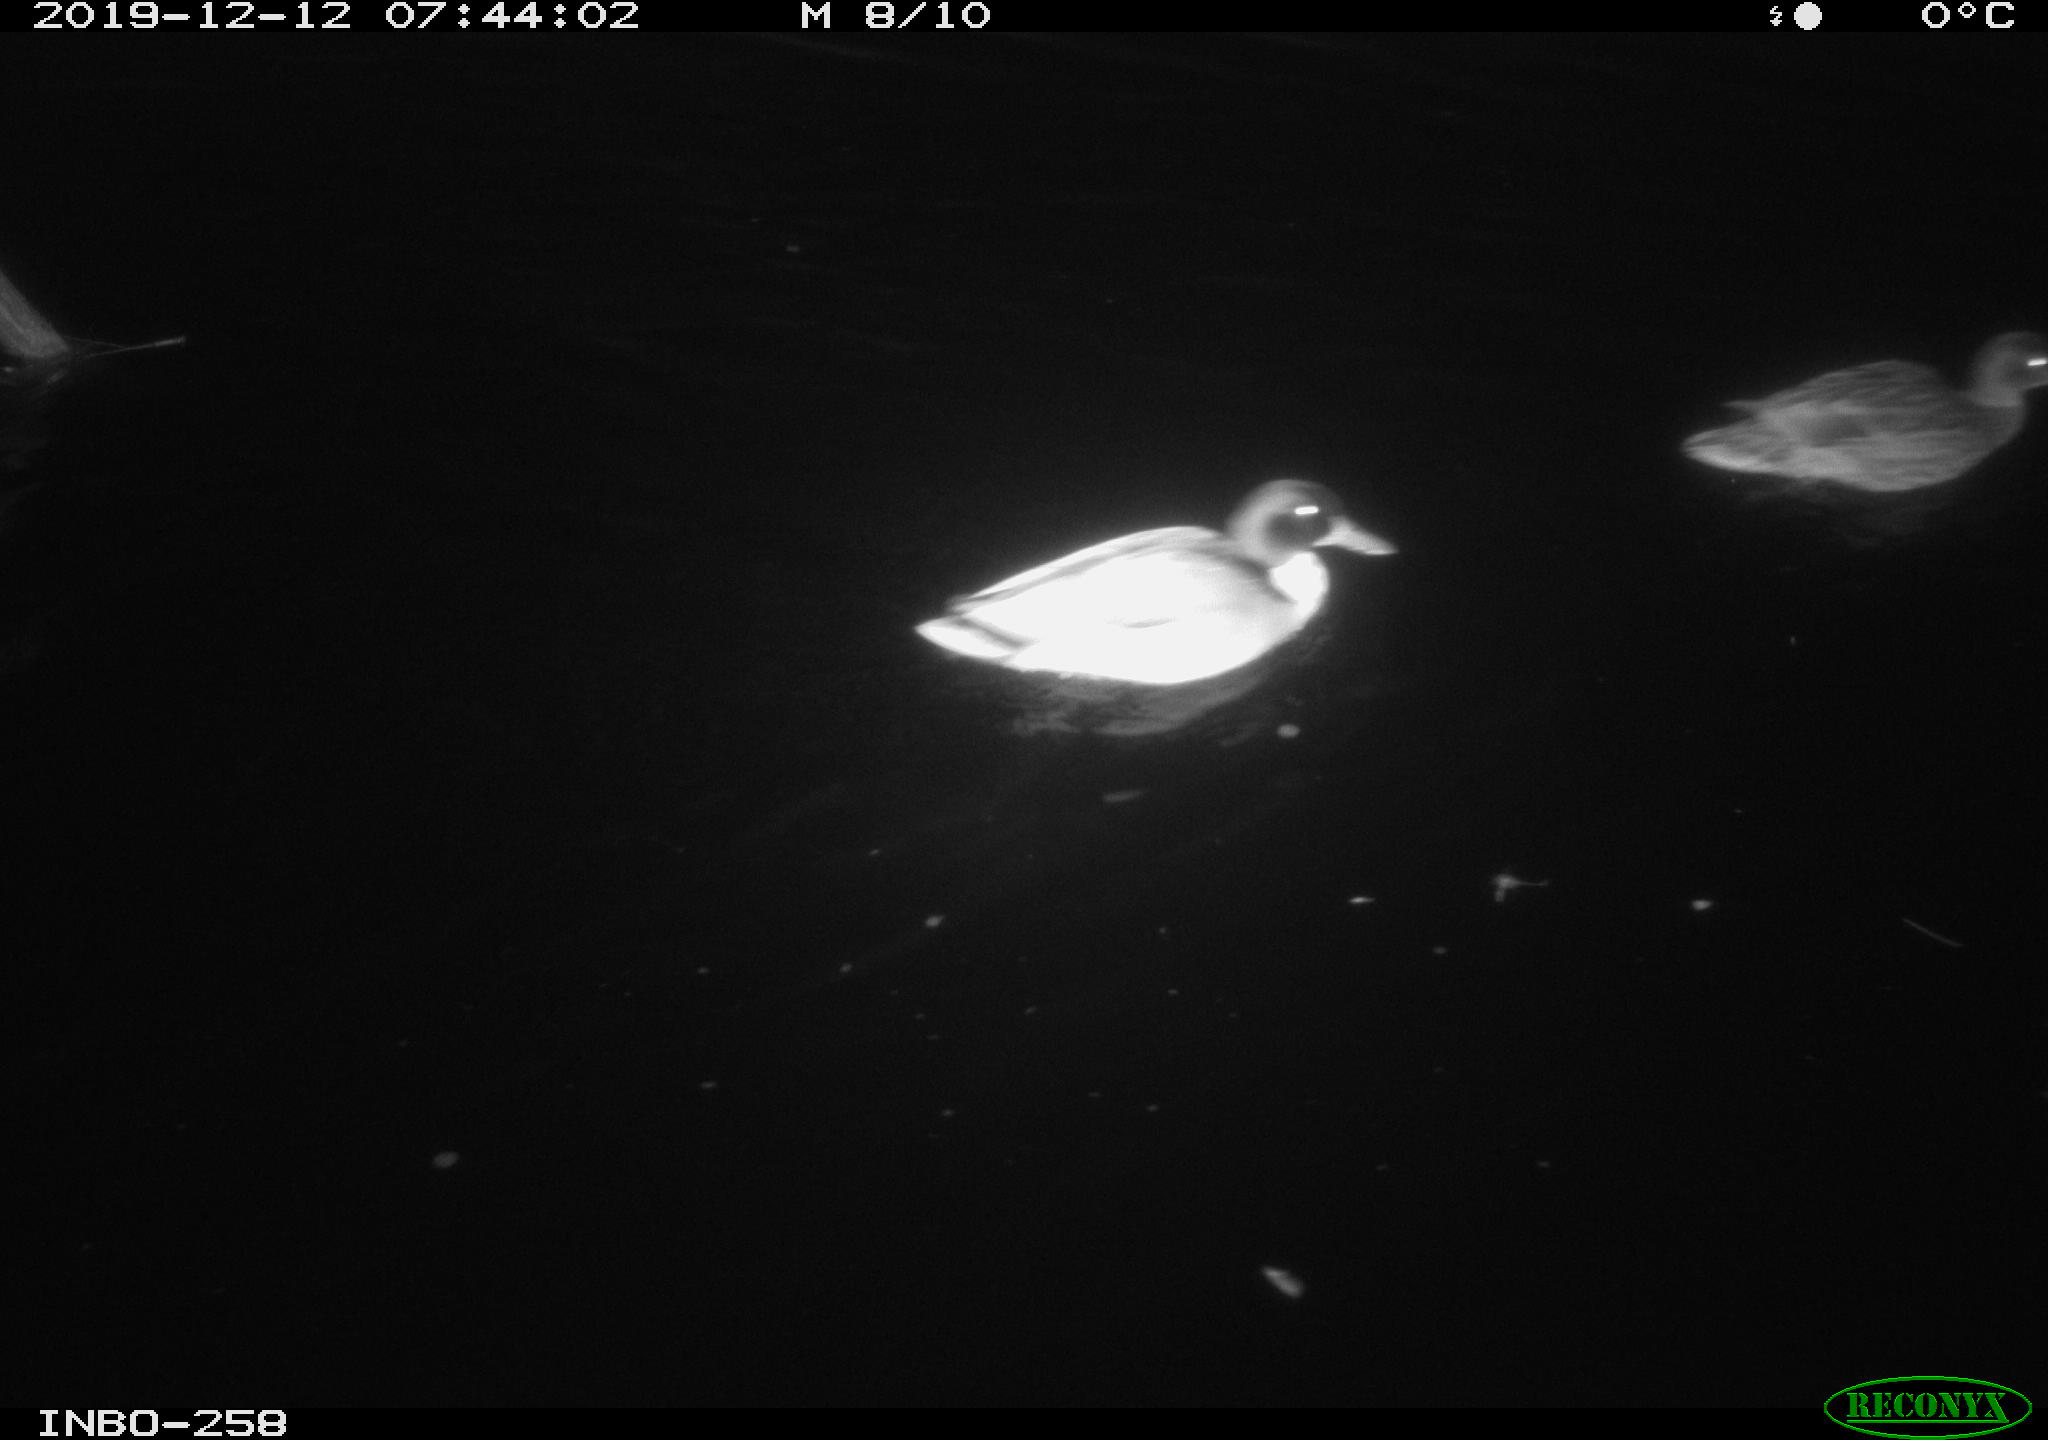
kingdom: Animalia
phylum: Chordata
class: Aves
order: Anseriformes
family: Anatidae
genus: Anas
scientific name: Anas platyrhynchos
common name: Mallard
